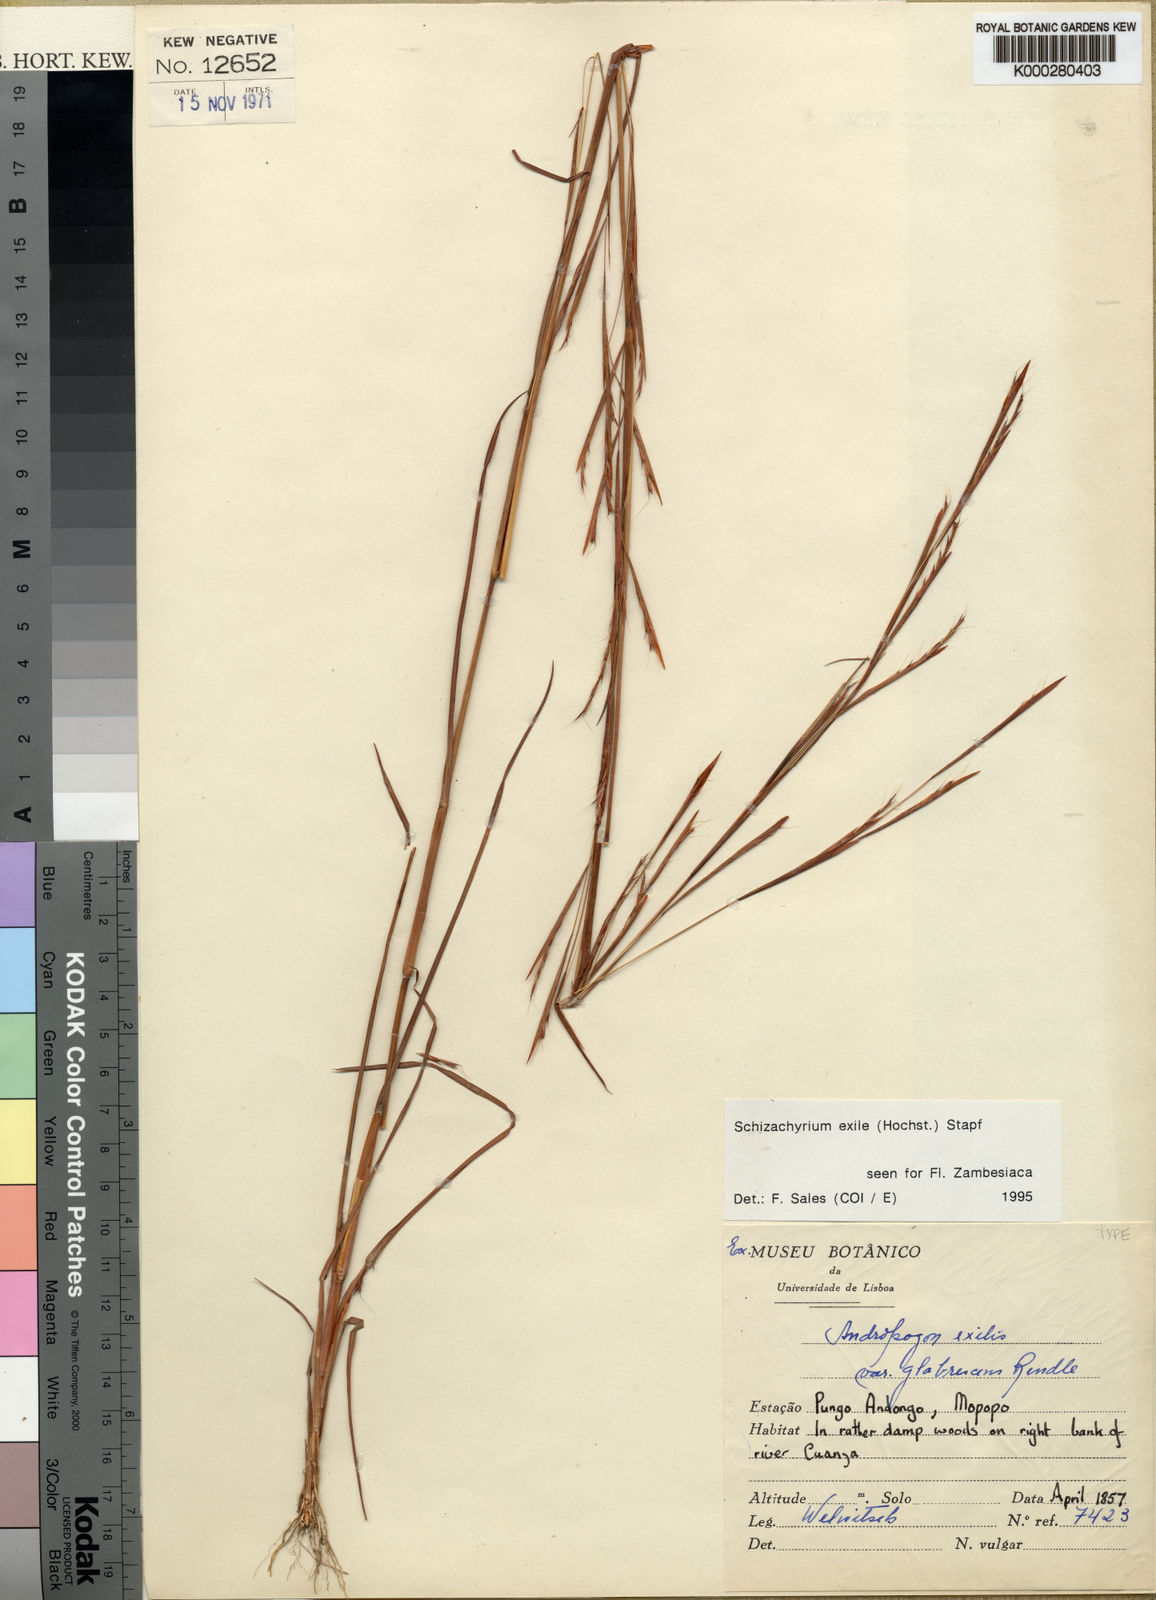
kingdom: Plantae
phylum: Tracheophyta
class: Liliopsida
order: Poales
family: Poaceae
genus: Schizachyrium
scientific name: Schizachyrium exile
